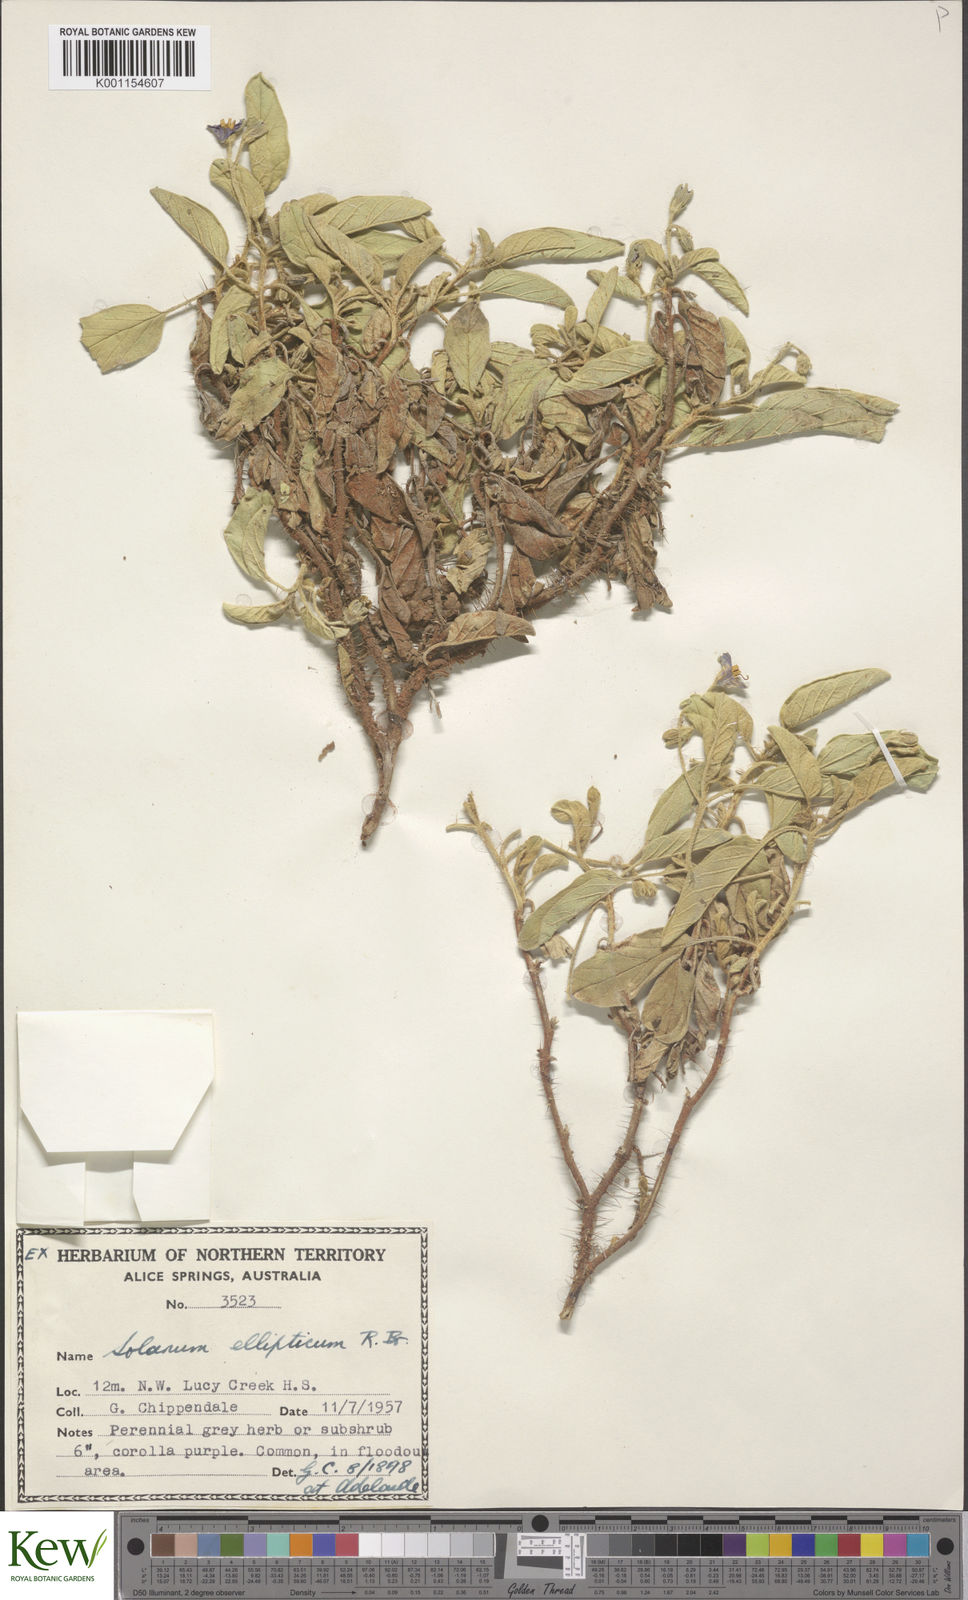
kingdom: Plantae
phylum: Tracheophyta
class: Magnoliopsida
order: Solanales
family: Solanaceae
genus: Solanum
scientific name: Solanum ellipticum
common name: Potato-bush
